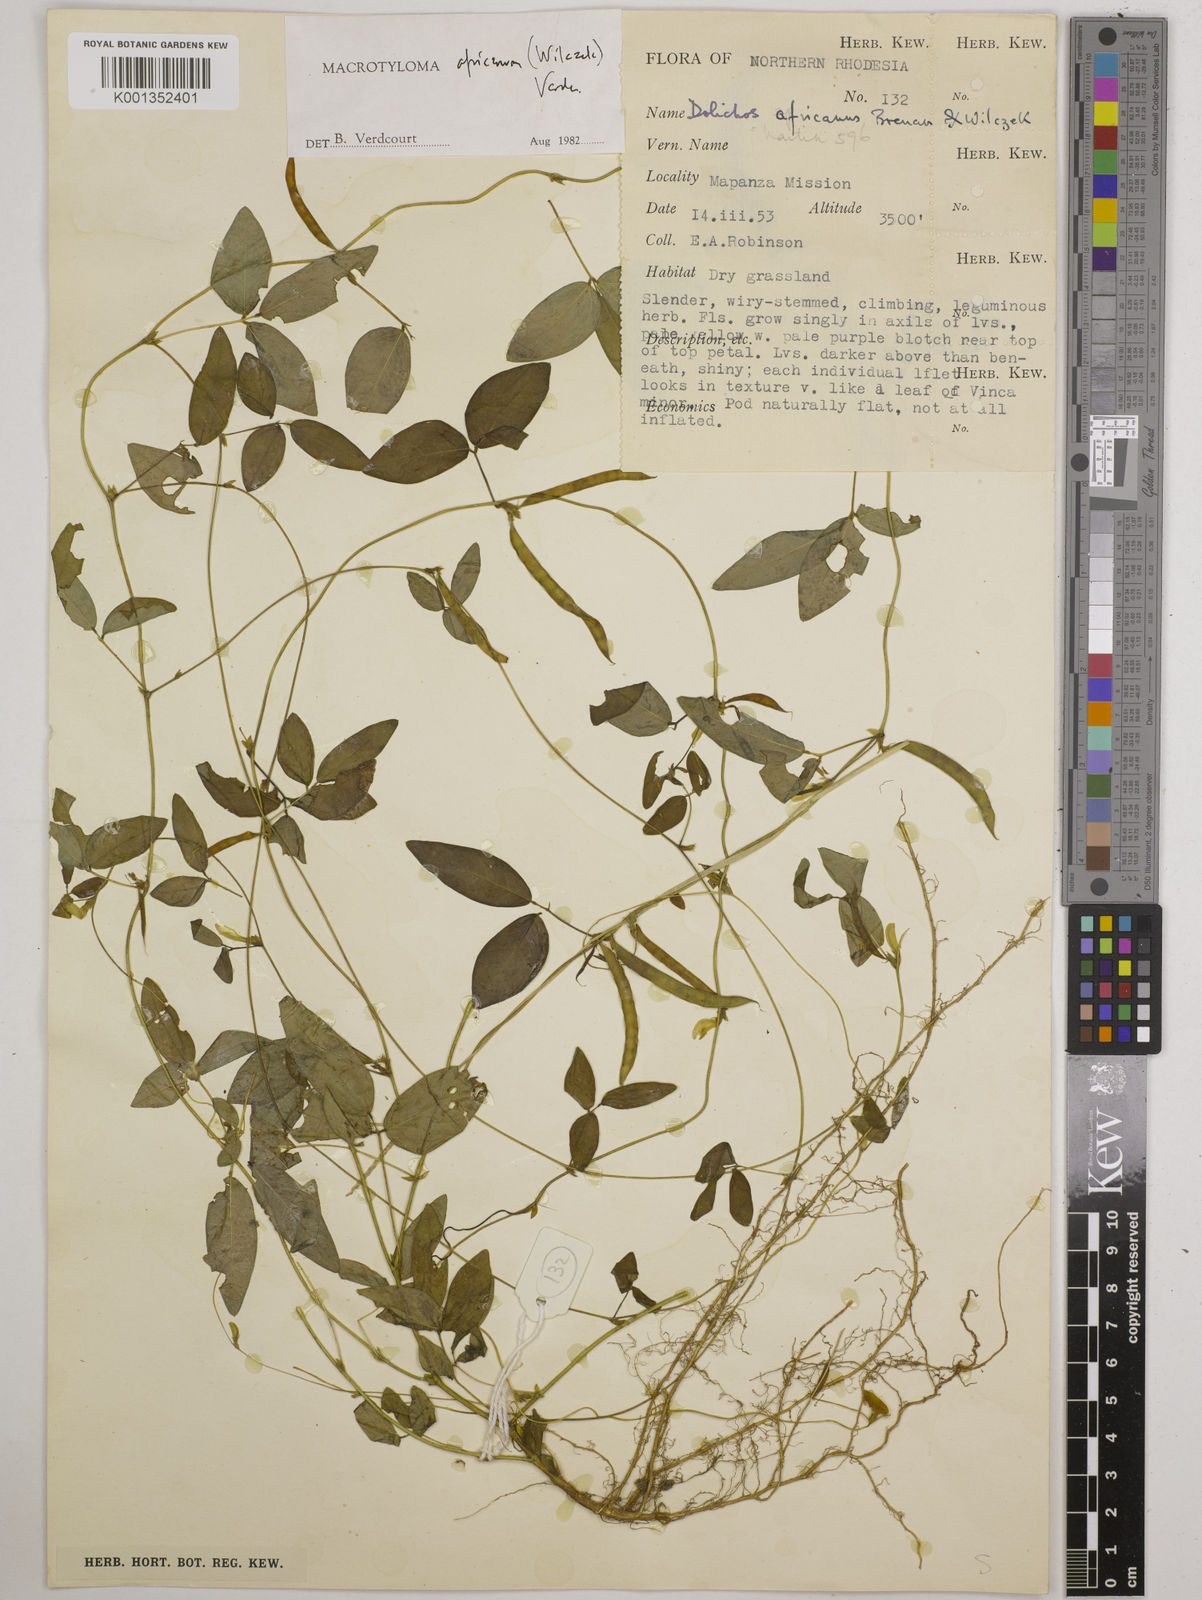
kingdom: Plantae
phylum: Tracheophyta
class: Magnoliopsida
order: Fabales
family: Fabaceae
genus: Macrotyloma
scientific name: Macrotyloma africanum
